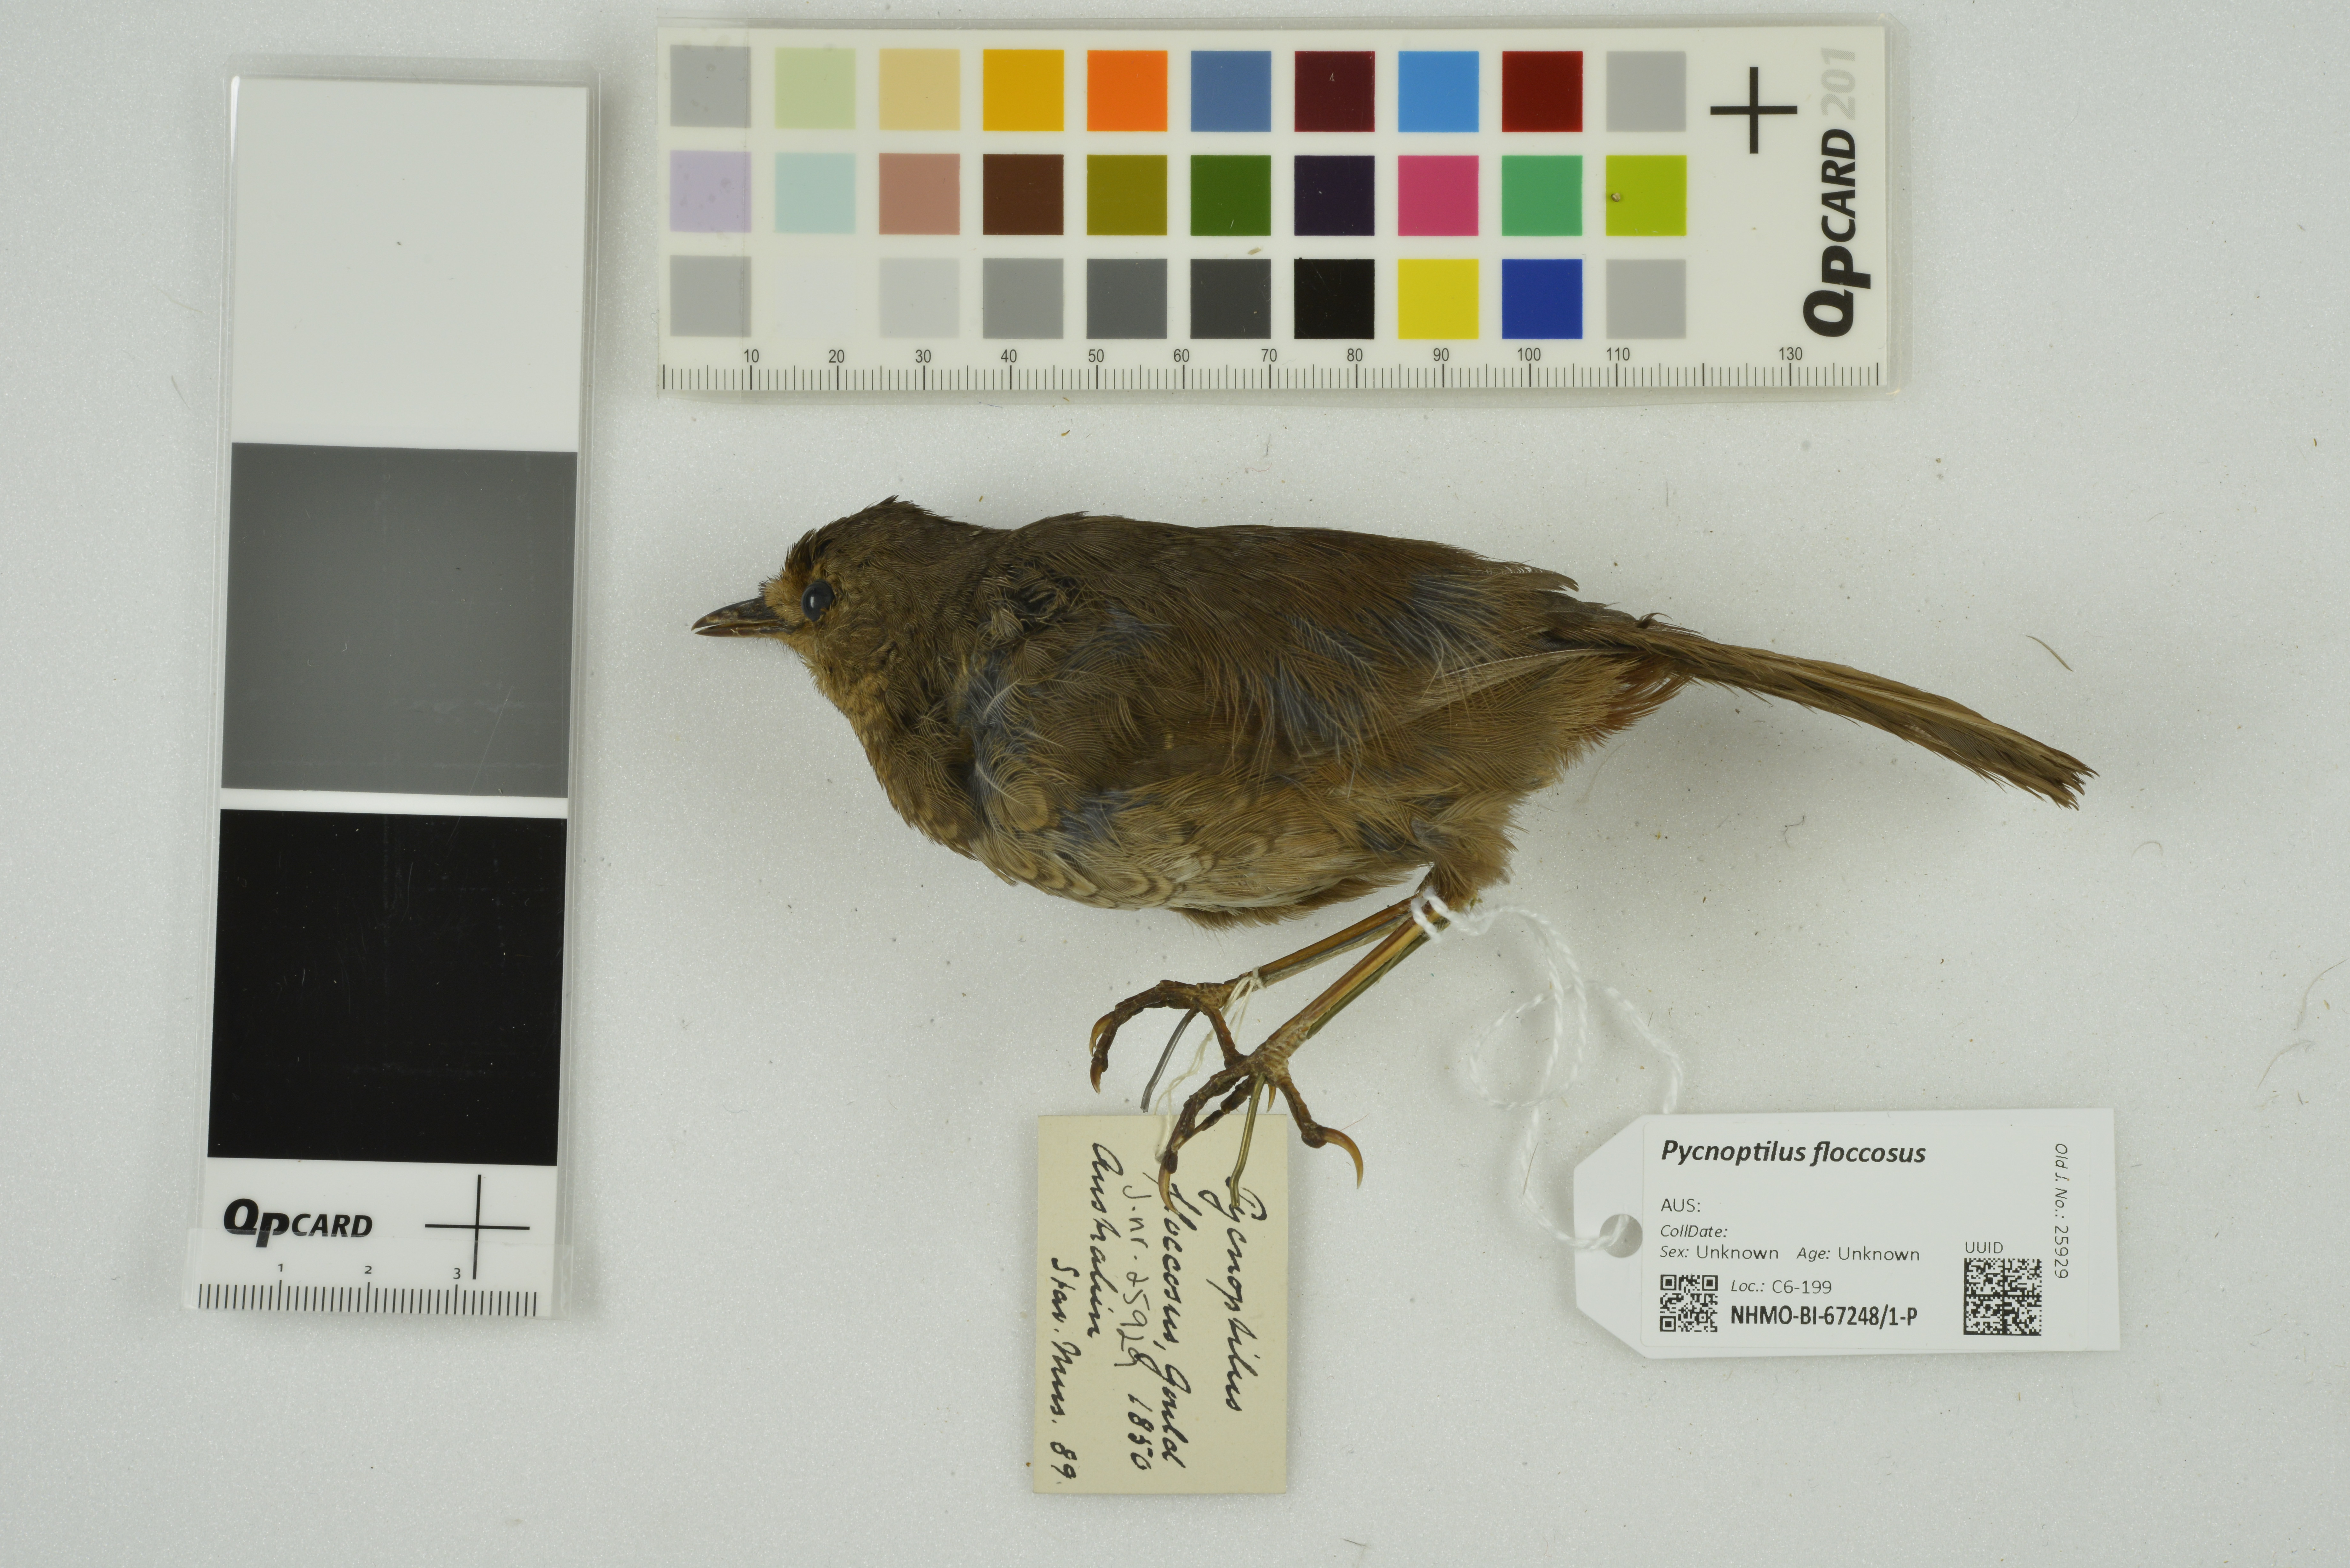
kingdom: Animalia
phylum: Chordata
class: Aves
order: Passeriformes
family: Acanthizidae
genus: Pycnoptilus
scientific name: Pycnoptilus floccosus
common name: Pilotbird
